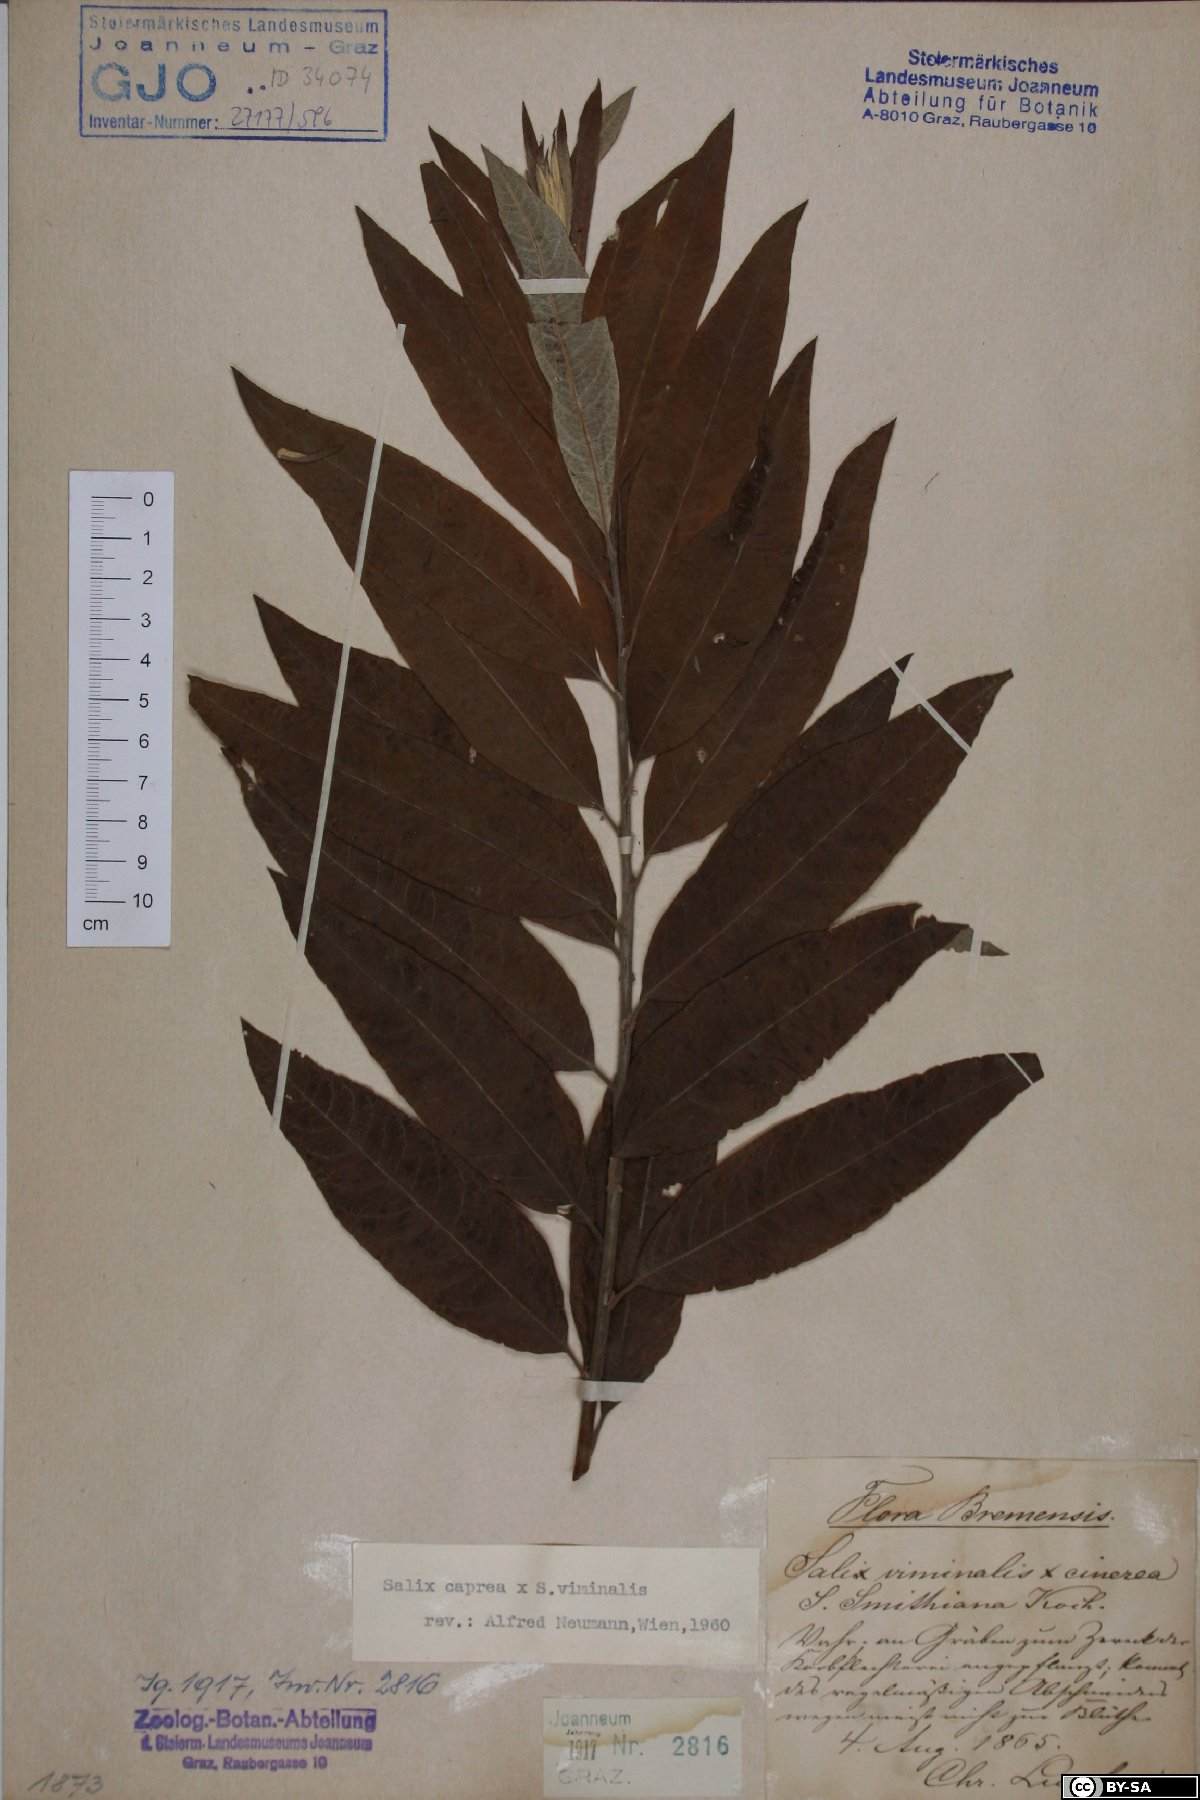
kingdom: Plantae
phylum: Tracheophyta
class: Magnoliopsida
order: Malpighiales
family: Salicaceae
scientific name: Salicaceae
